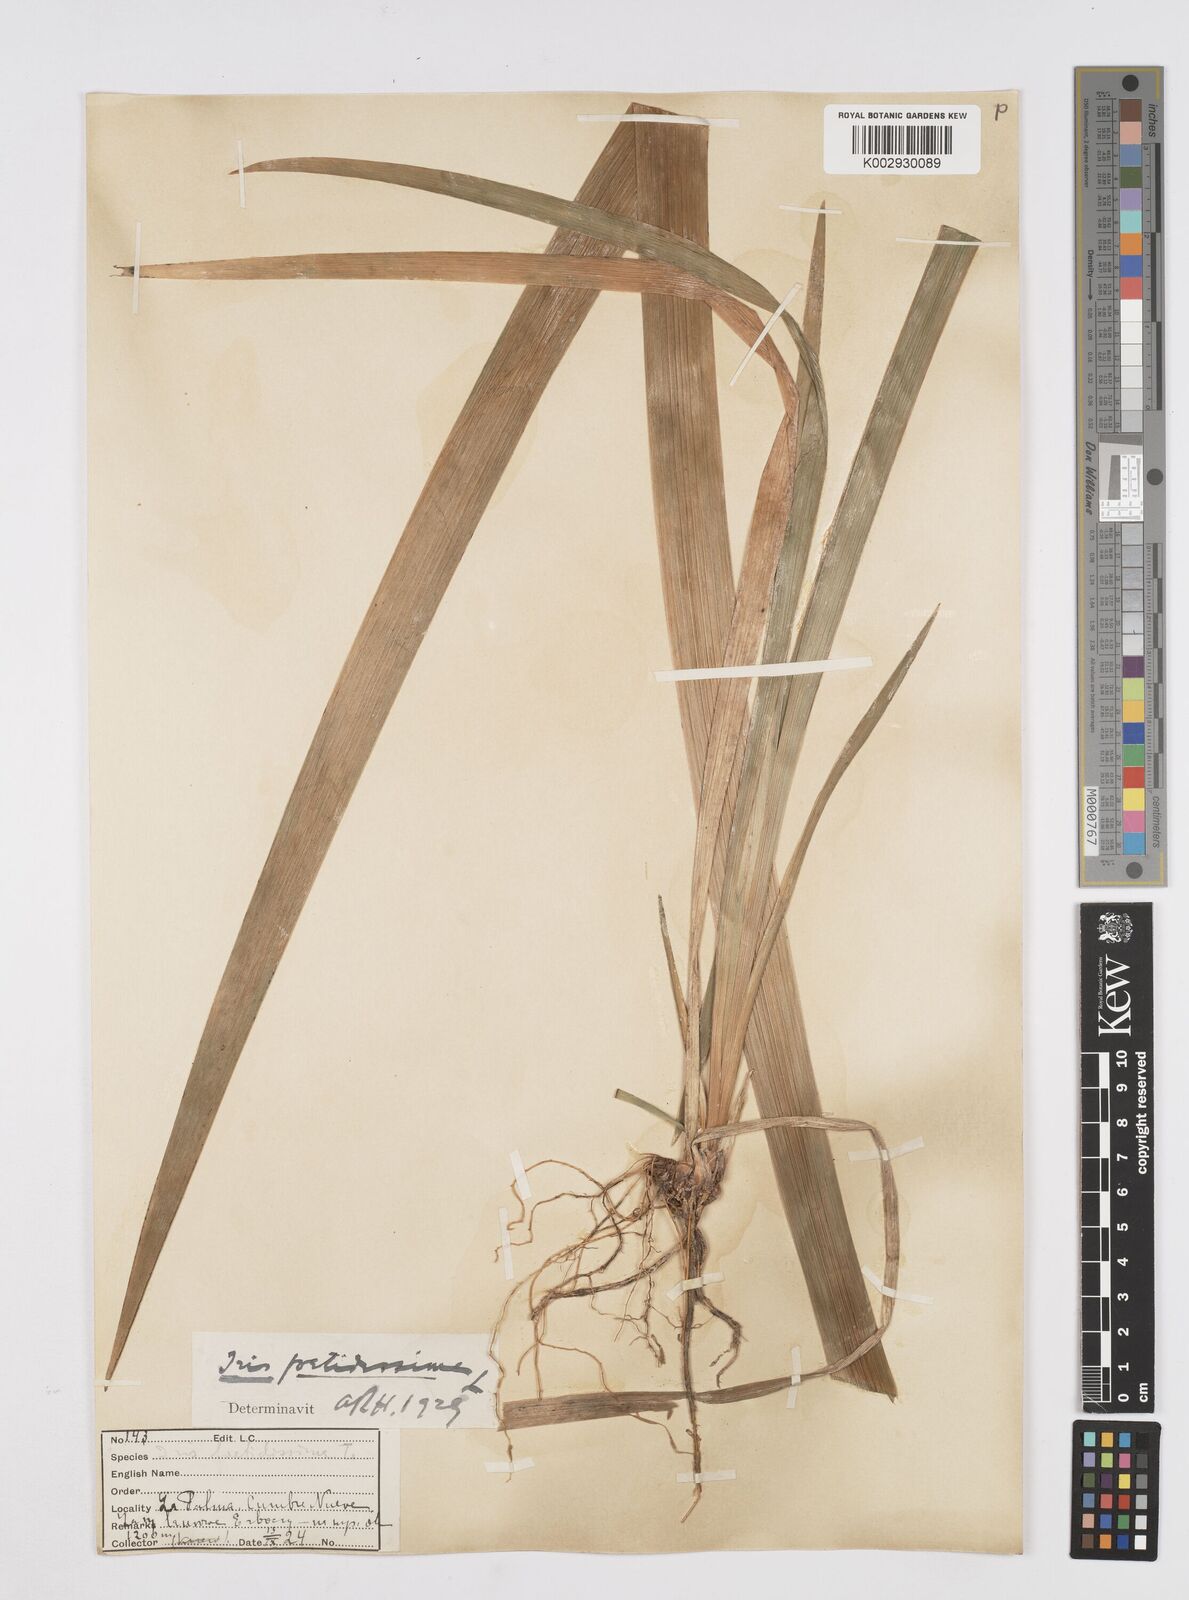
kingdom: Plantae
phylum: Tracheophyta
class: Liliopsida
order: Asparagales
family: Iridaceae
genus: Iris
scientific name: Iris foetidissima
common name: Stinking iris
